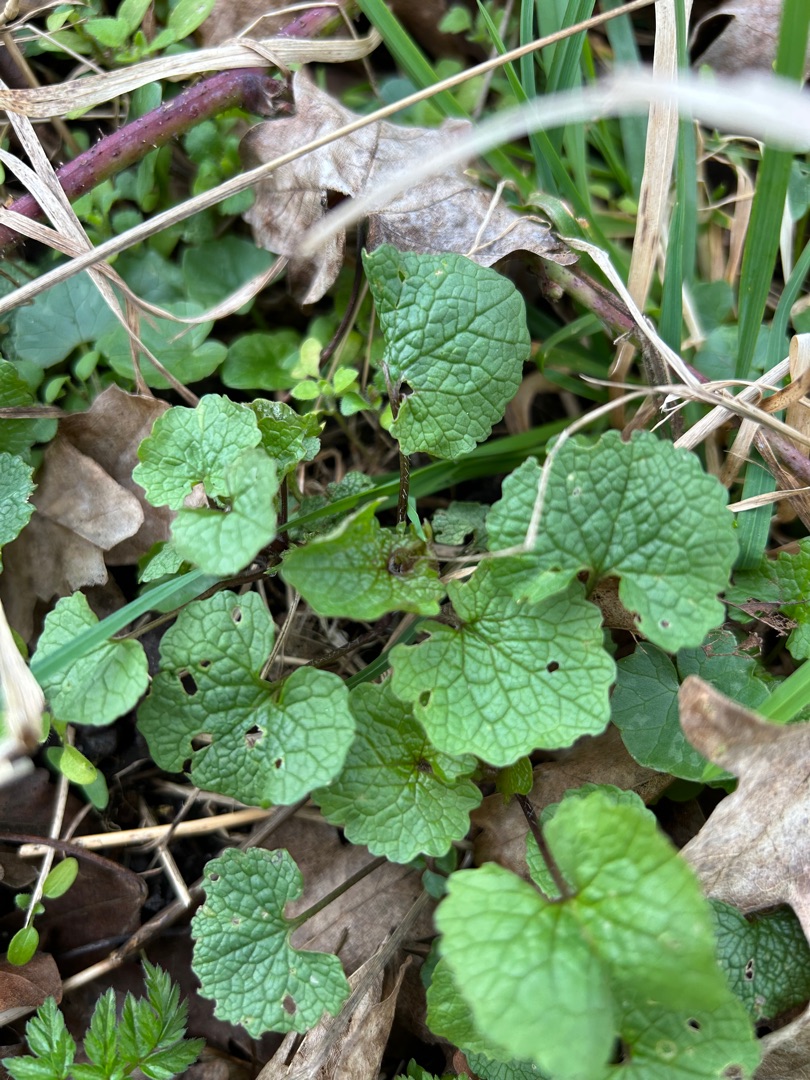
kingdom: Plantae
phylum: Tracheophyta
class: Magnoliopsida
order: Brassicales
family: Brassicaceae
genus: Alliaria
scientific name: Alliaria petiolata
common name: Løgkarse
